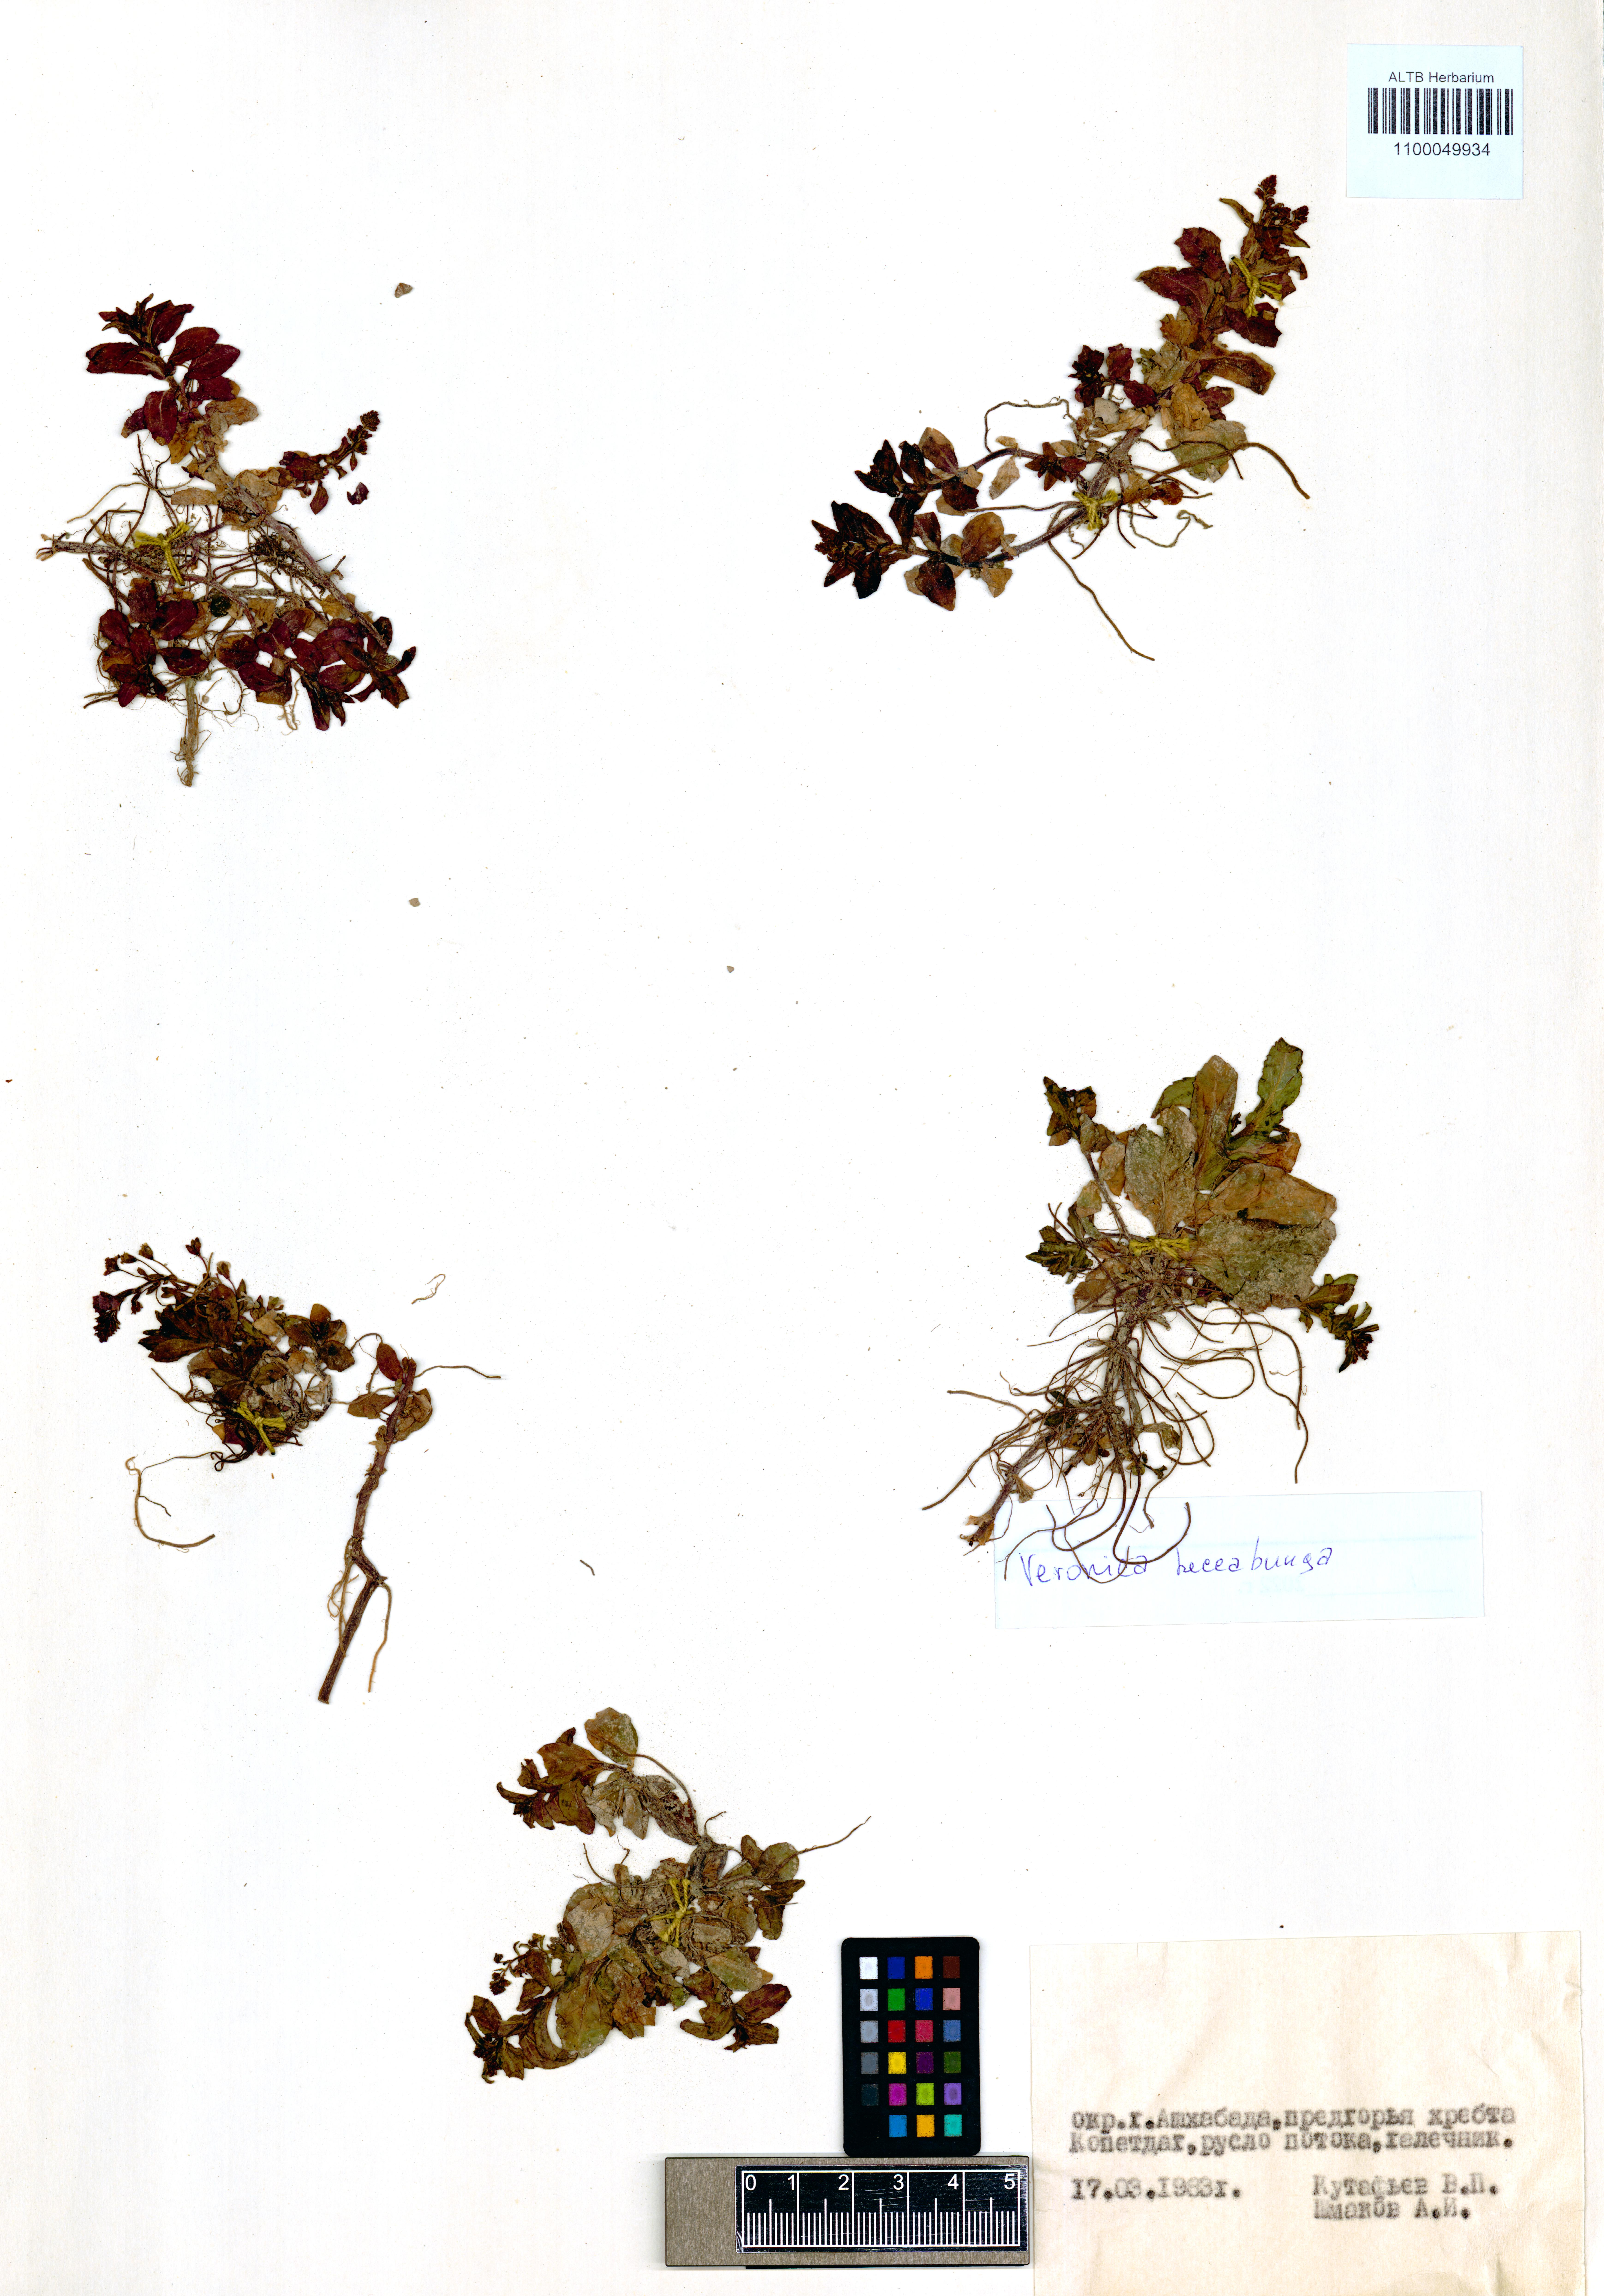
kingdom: Plantae
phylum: Tracheophyta
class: Magnoliopsida
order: Lamiales
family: Plantaginaceae
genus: Veronica
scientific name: Veronica beccabunga
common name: Brooklime
